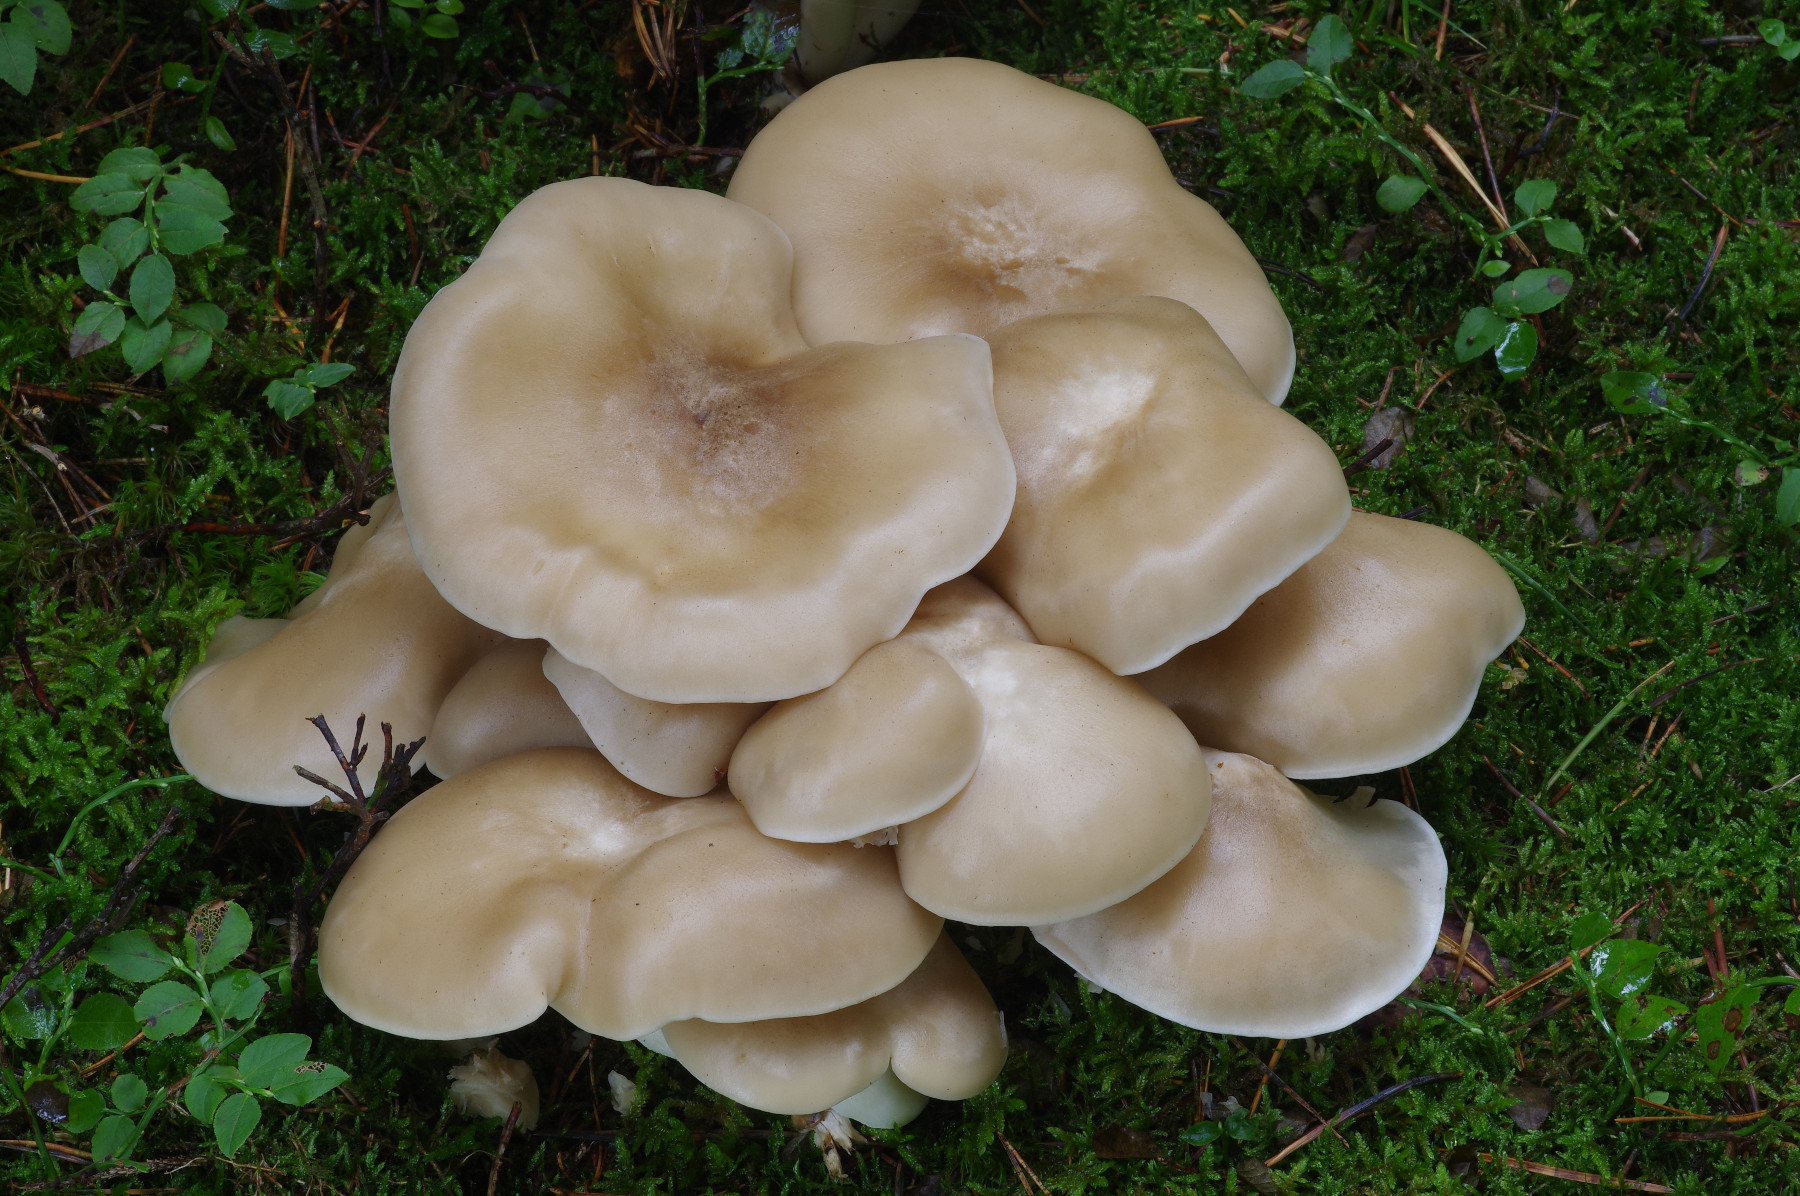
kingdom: Fungi
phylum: Basidiomycota
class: Agaricomycetes
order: Agaricales
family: Lyophyllaceae
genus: Lyophyllum
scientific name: Lyophyllum shimeji
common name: shimeji-gråblad
